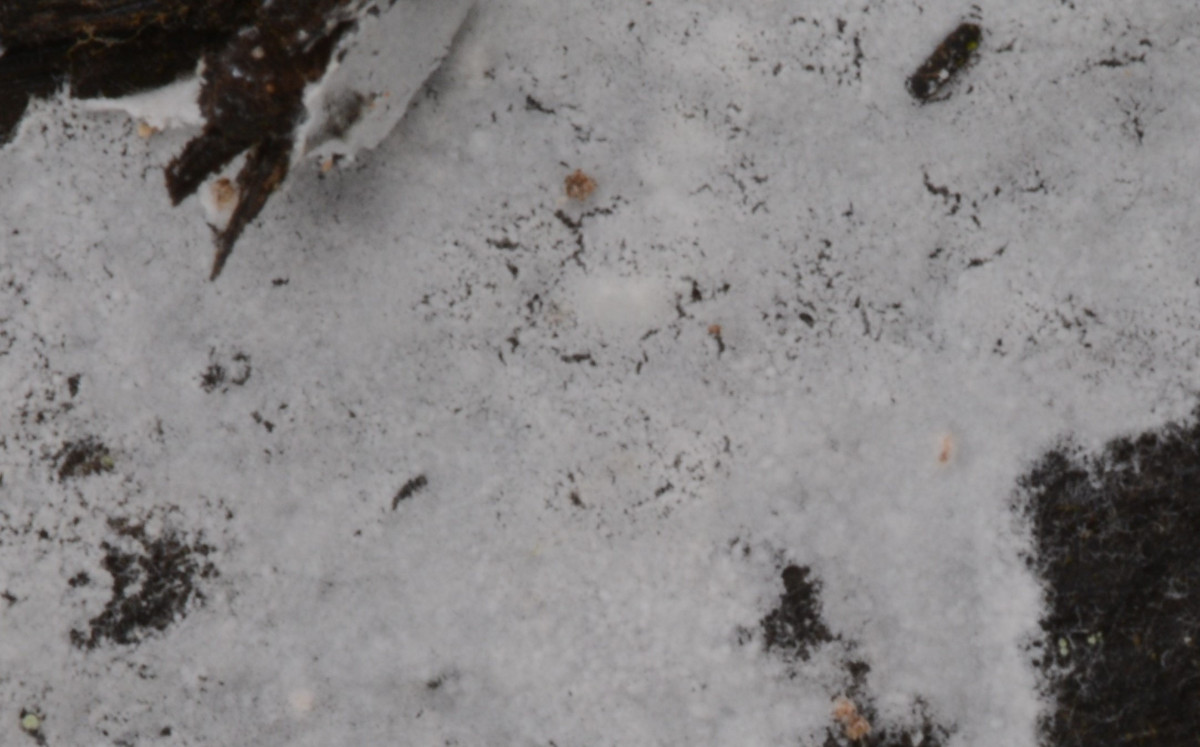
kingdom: Fungi
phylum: Basidiomycota
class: Agaricomycetes
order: Atheliales
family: Atheliaceae
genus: Athelia
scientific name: Athelia epiphylla
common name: almindelig barkhinde
